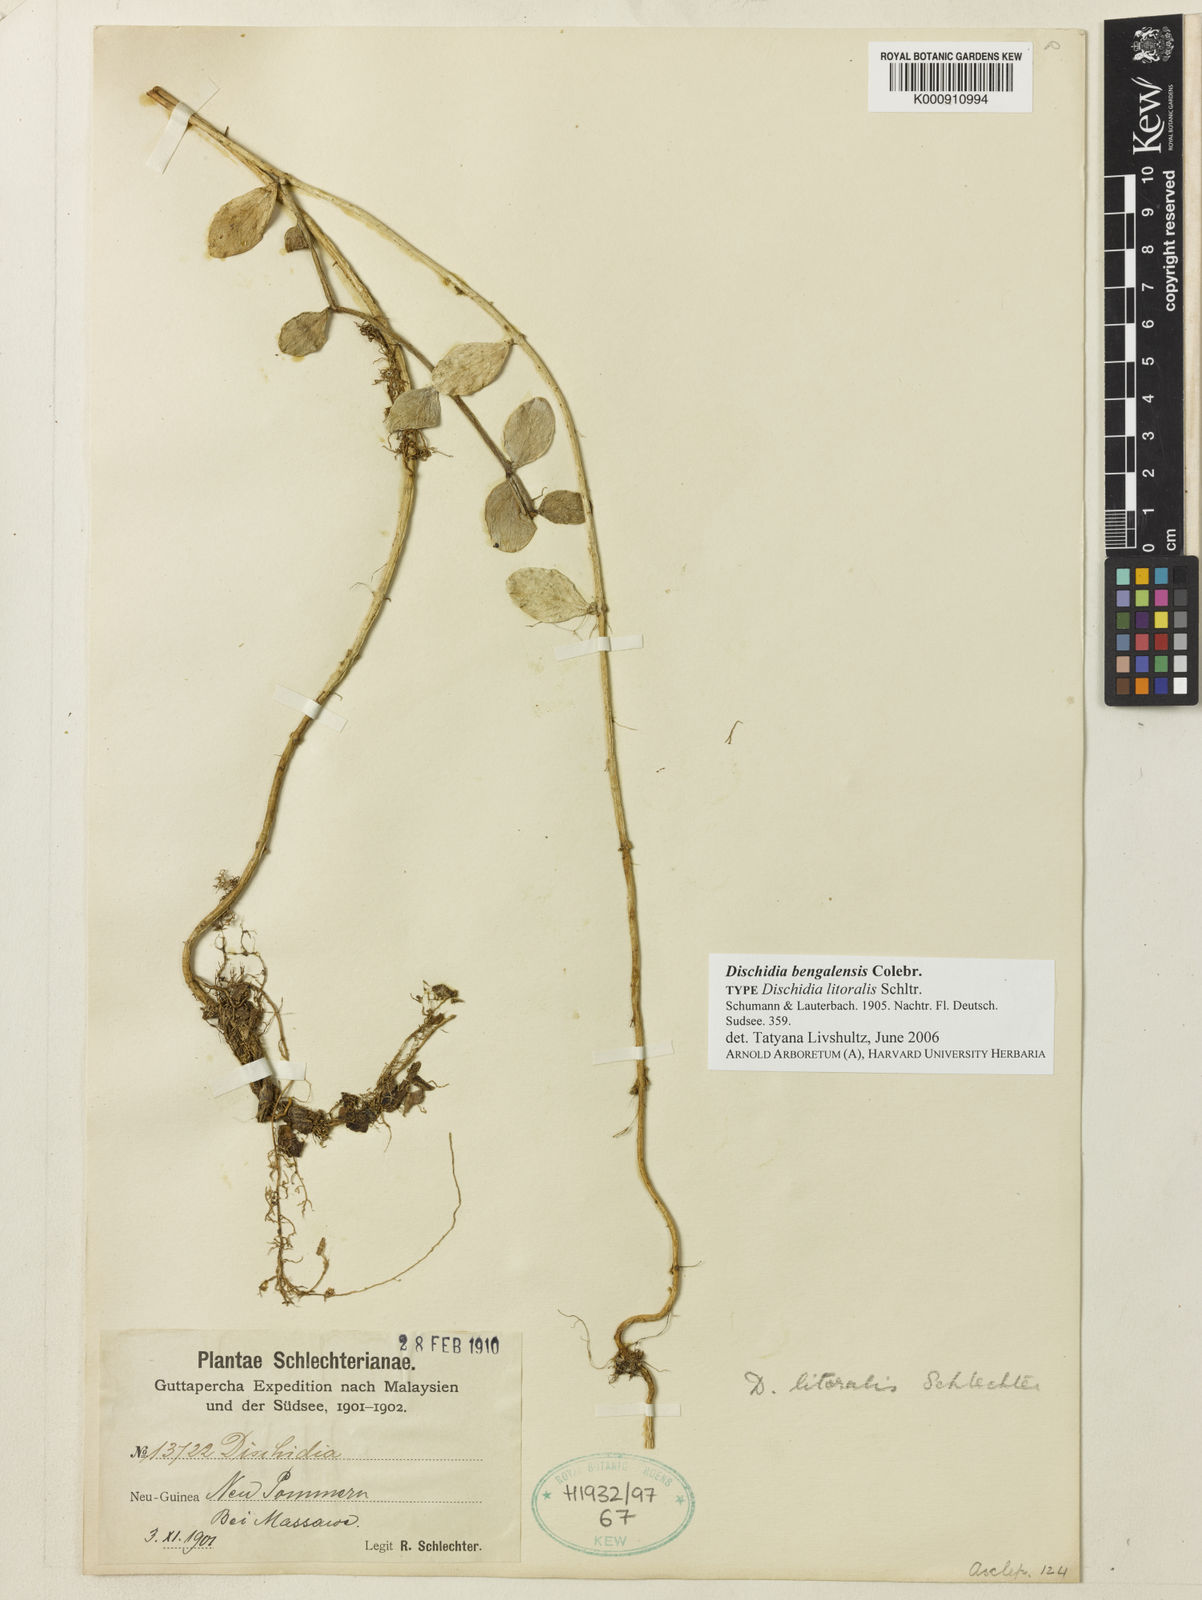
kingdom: Plantae
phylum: Tracheophyta
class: Magnoliopsida
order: Gentianales
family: Apocynaceae
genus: Dischidia
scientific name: Dischidia bengalensis
